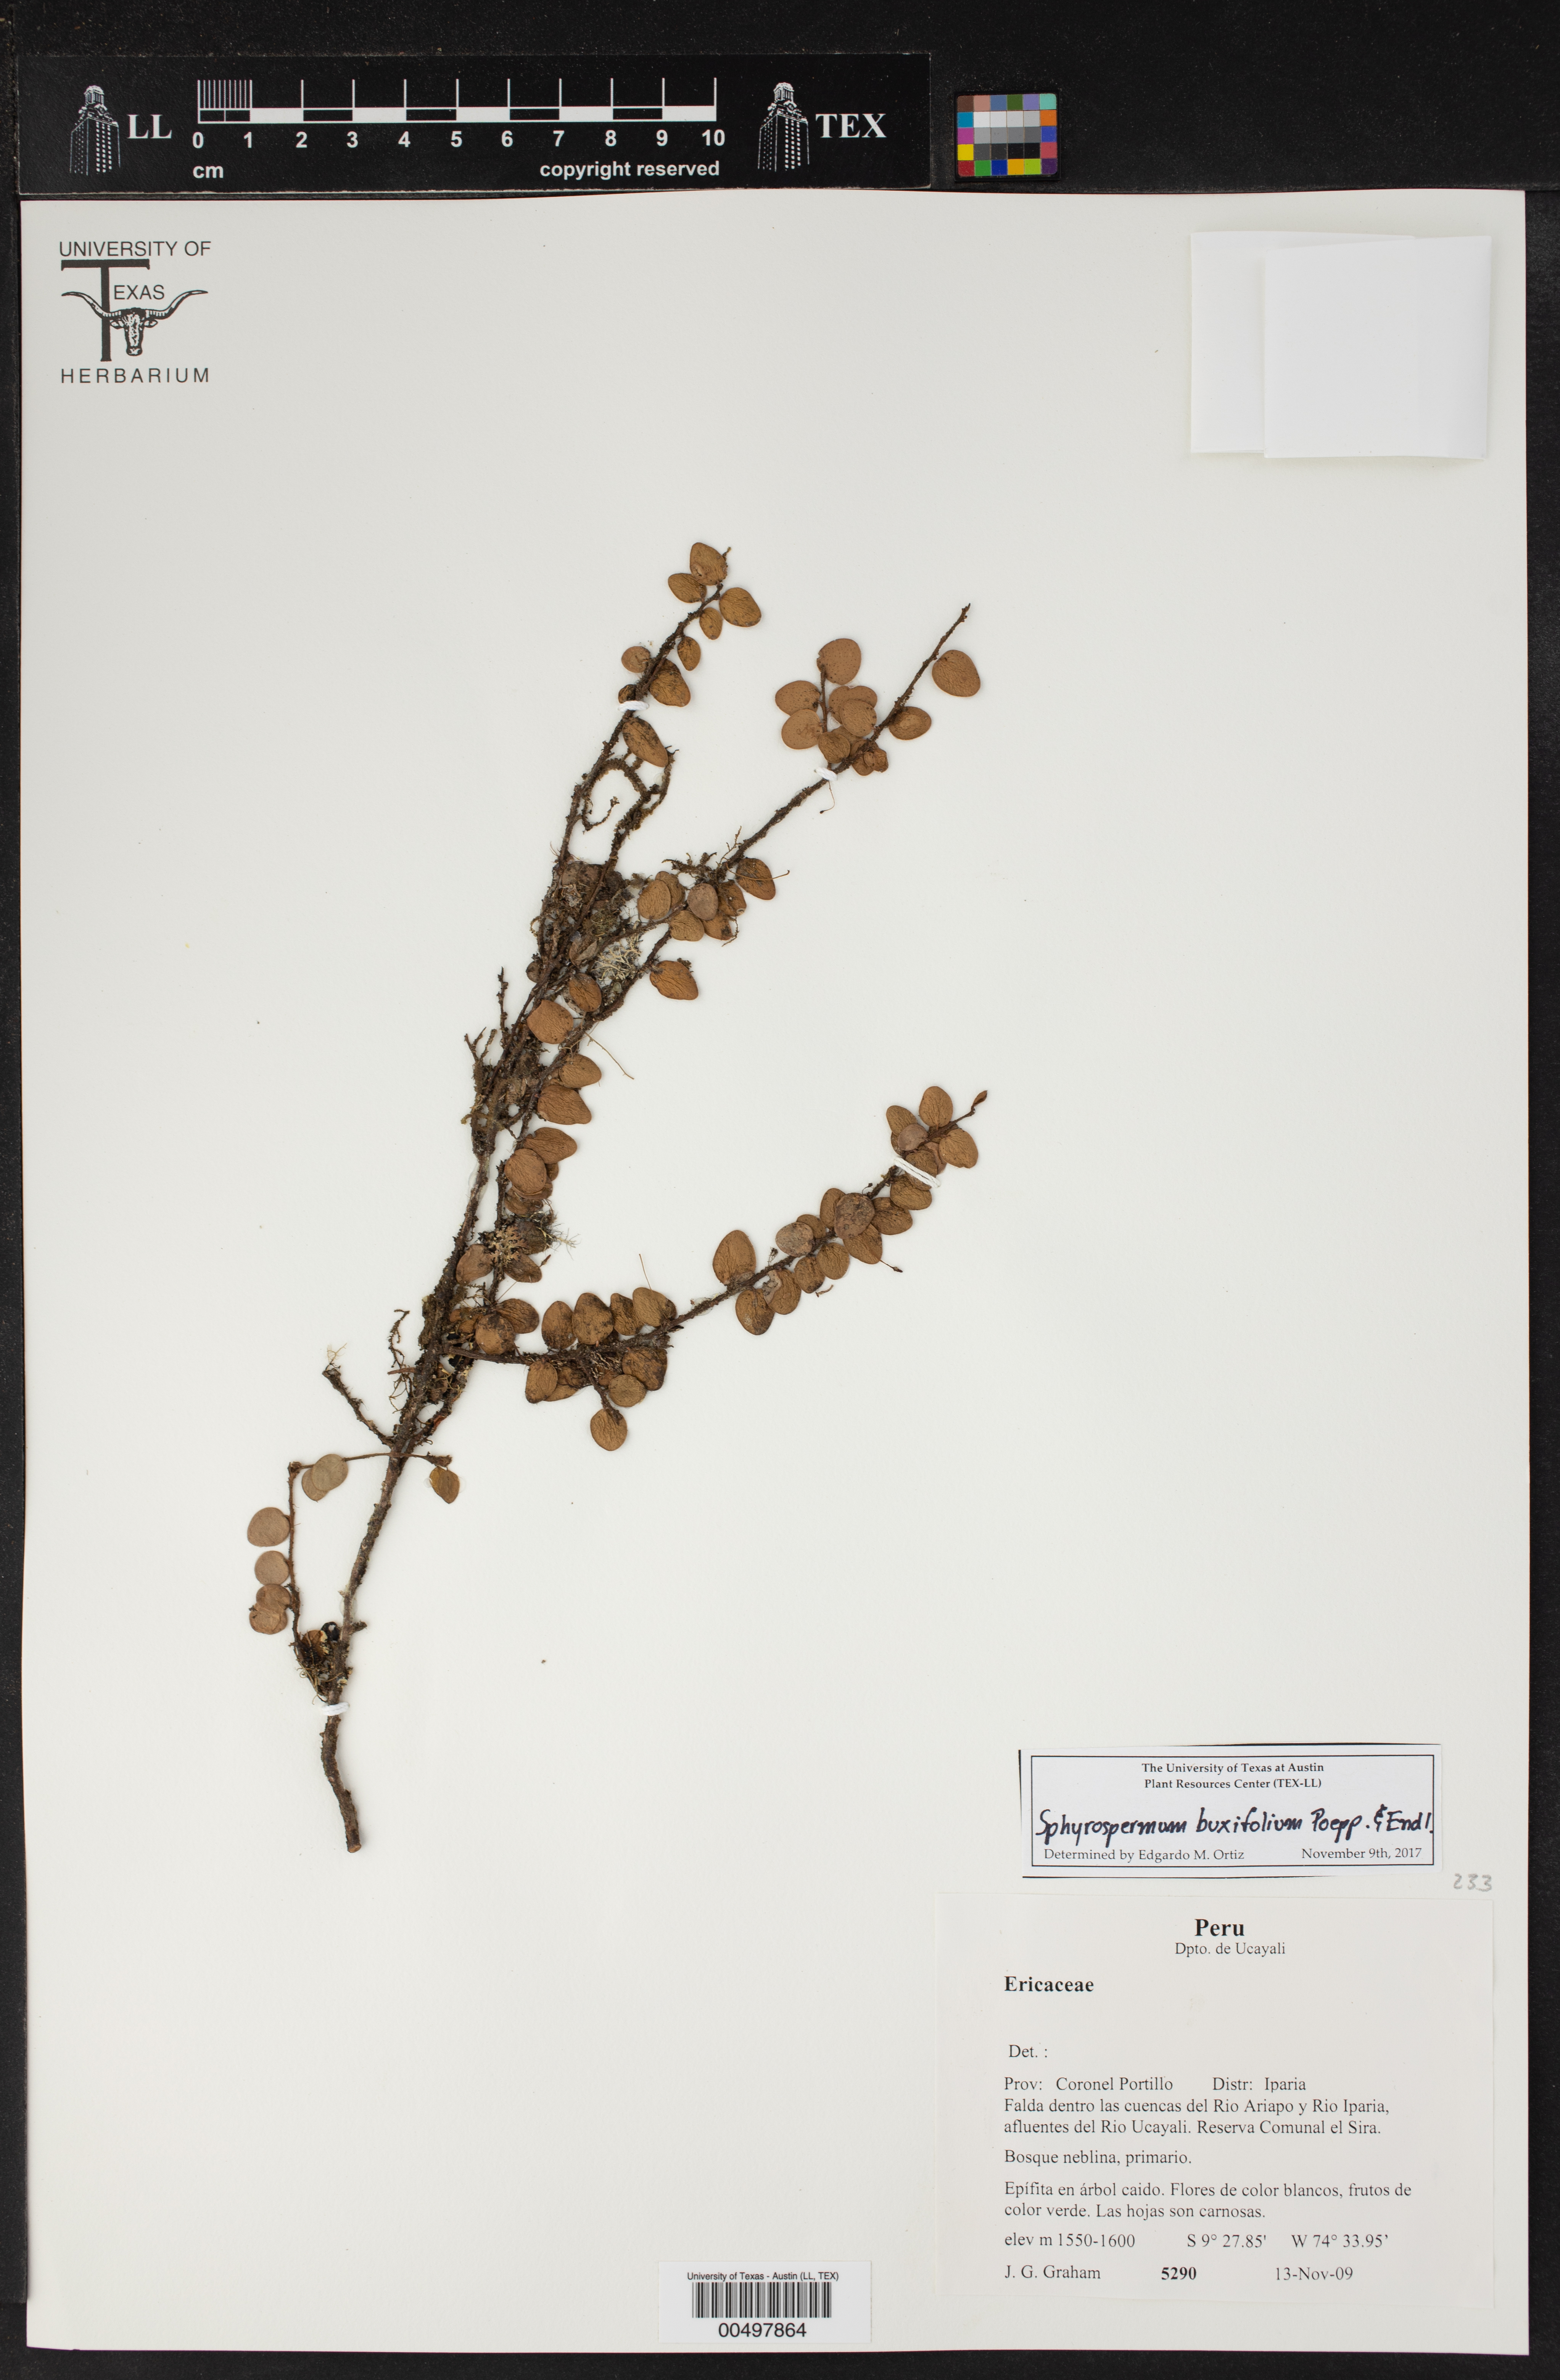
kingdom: Plantae
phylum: Tracheophyta
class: Magnoliopsida
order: Ericales
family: Ericaceae
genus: Sphyrospermum
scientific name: Sphyrospermum buxifolium
